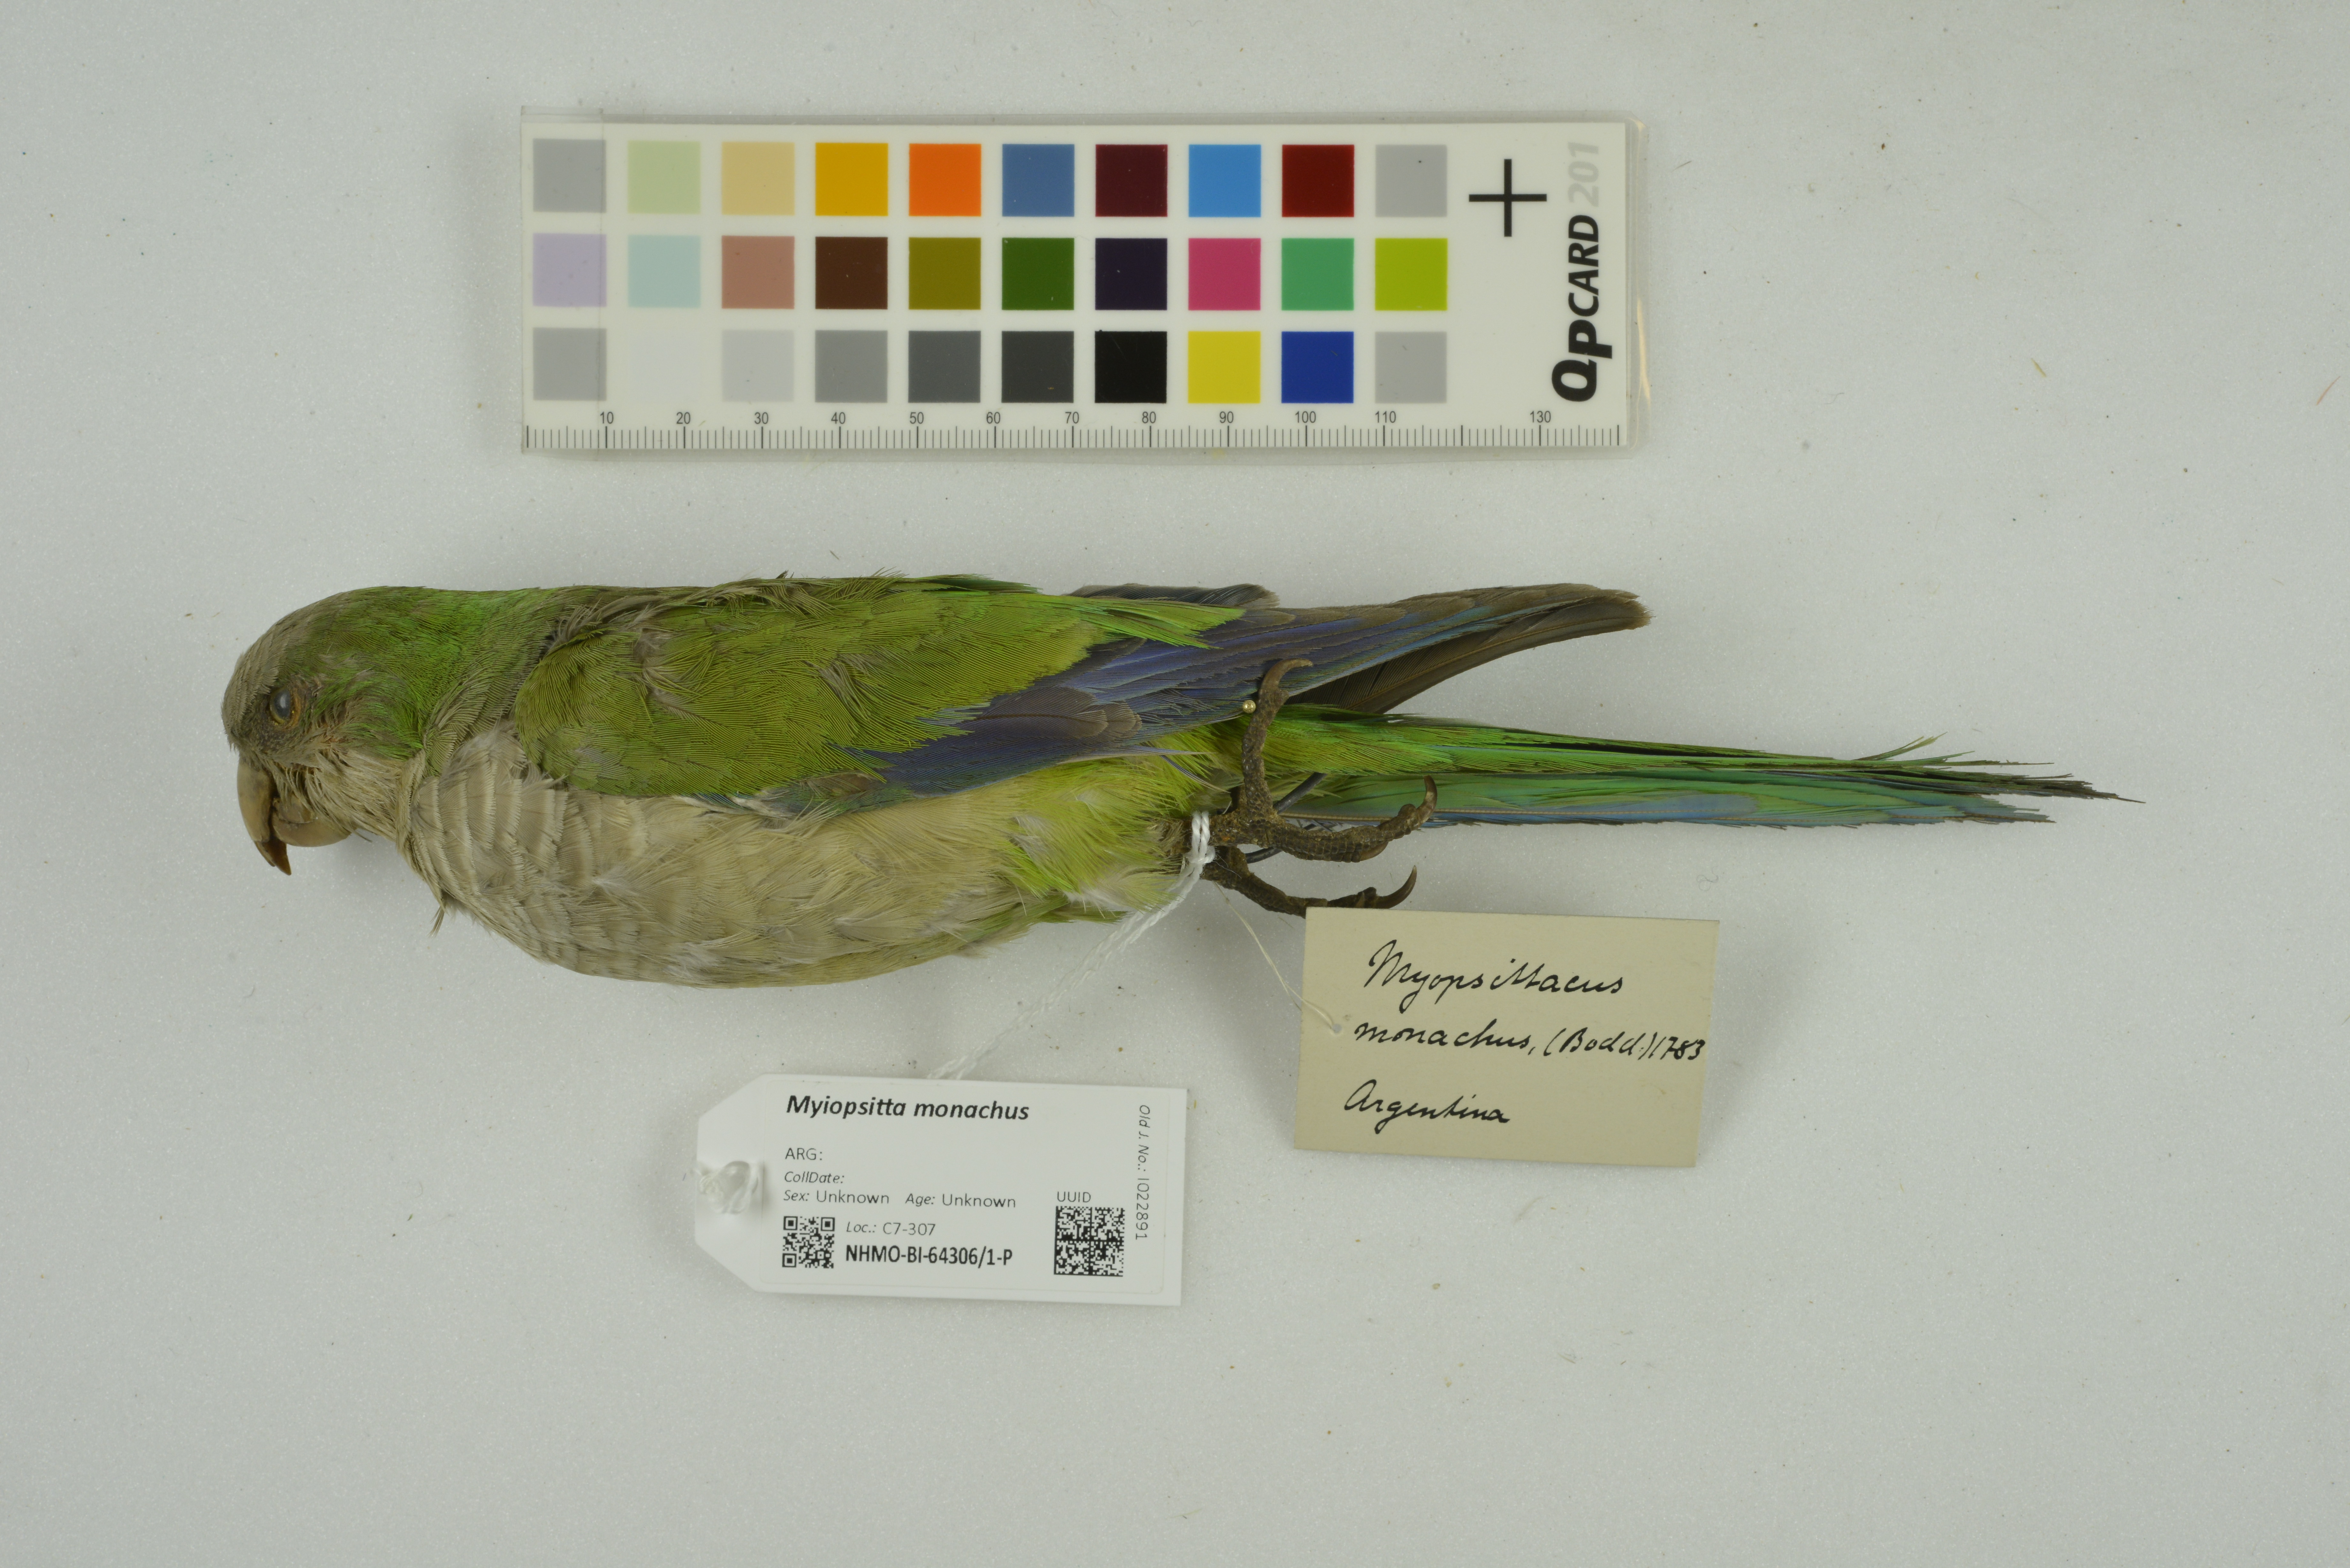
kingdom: Animalia
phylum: Chordata
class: Aves
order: Psittaciformes
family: Psittacidae
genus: Myiopsitta
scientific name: Myiopsitta monachus
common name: Monk parakeet
